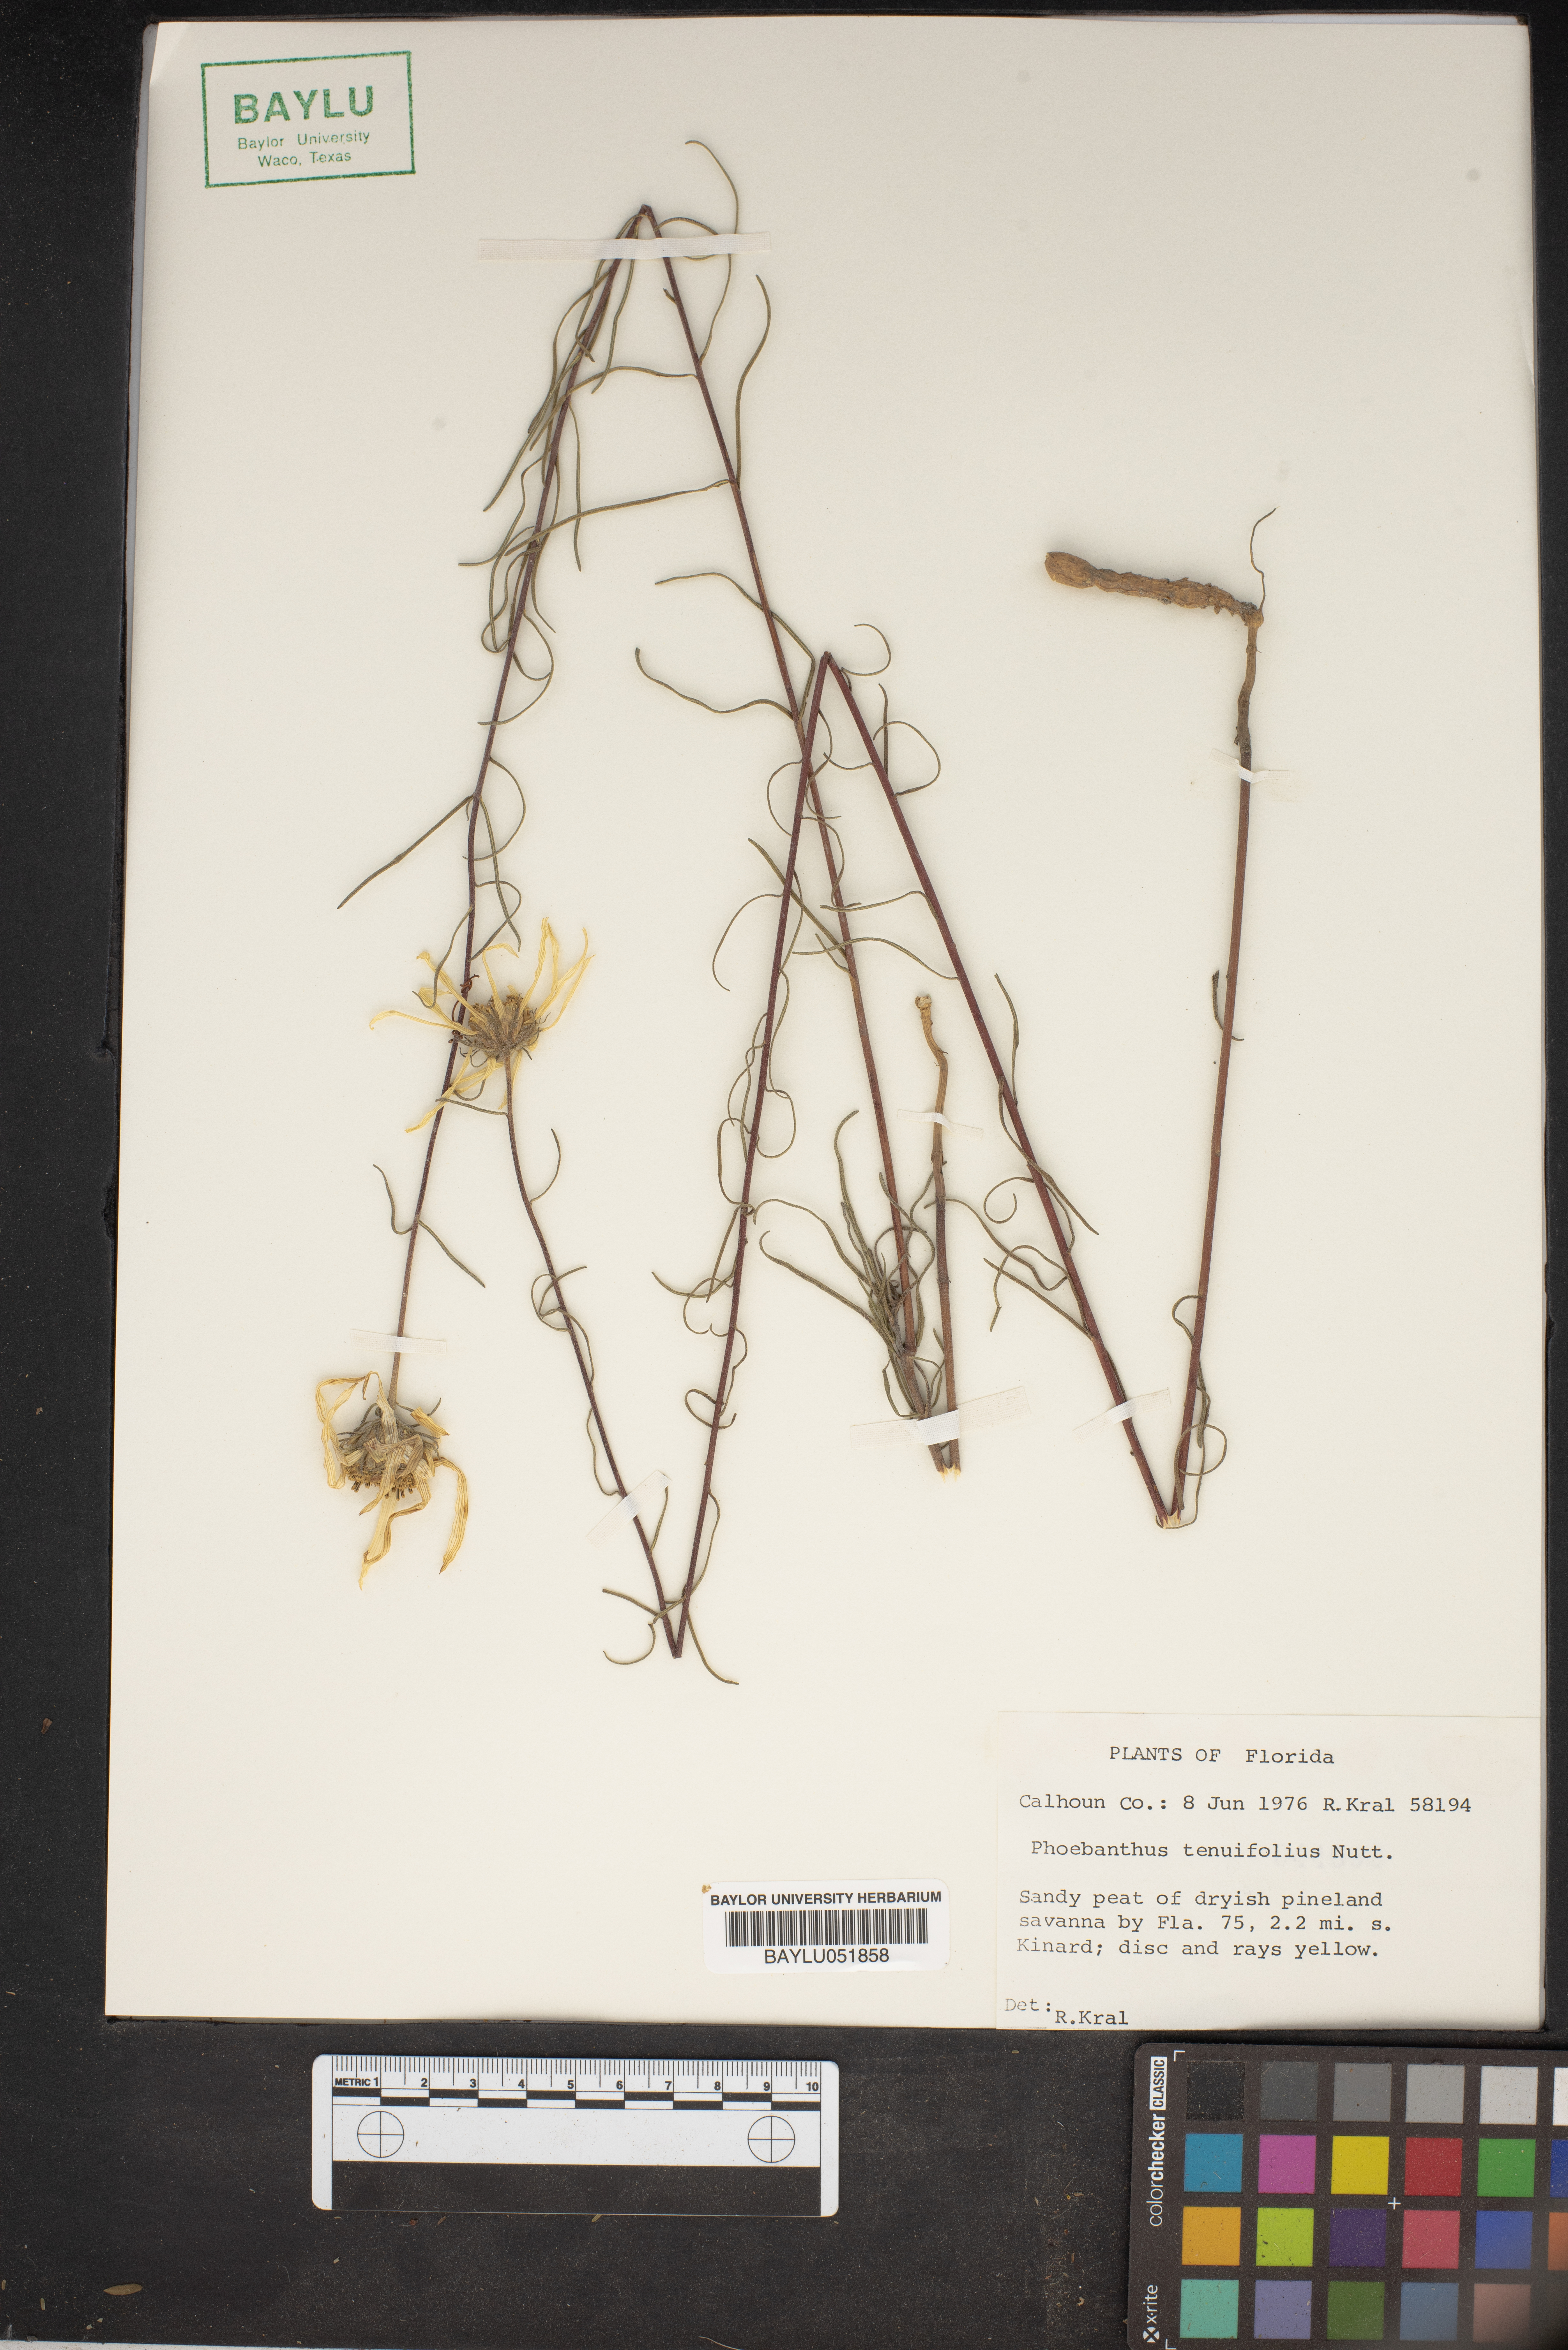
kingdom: Plantae
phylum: Tracheophyta
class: Magnoliopsida
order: Asterales
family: Asteraceae
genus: Phoebanthus
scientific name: Phoebanthus tenuifolia
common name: Pineland false sunflower
